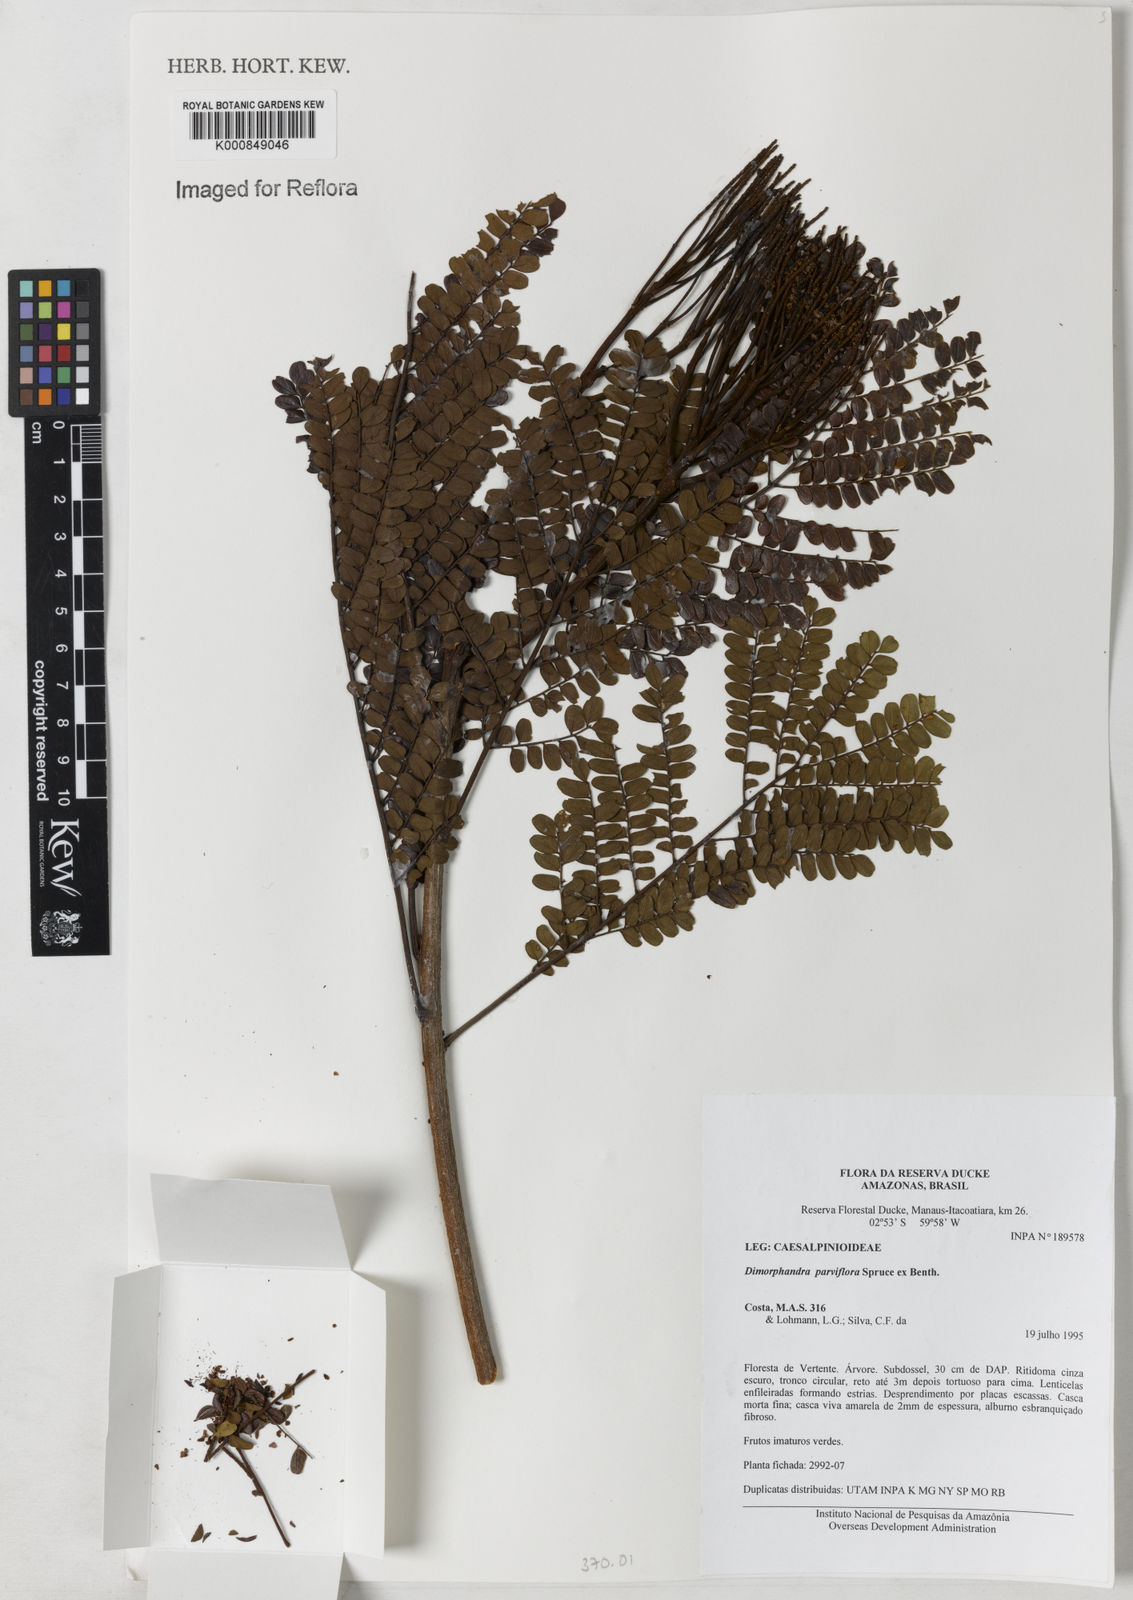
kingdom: Plantae
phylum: Tracheophyta
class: Magnoliopsida
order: Fabales
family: Fabaceae
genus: Dimorphandra
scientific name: Dimorphandra parviflora
